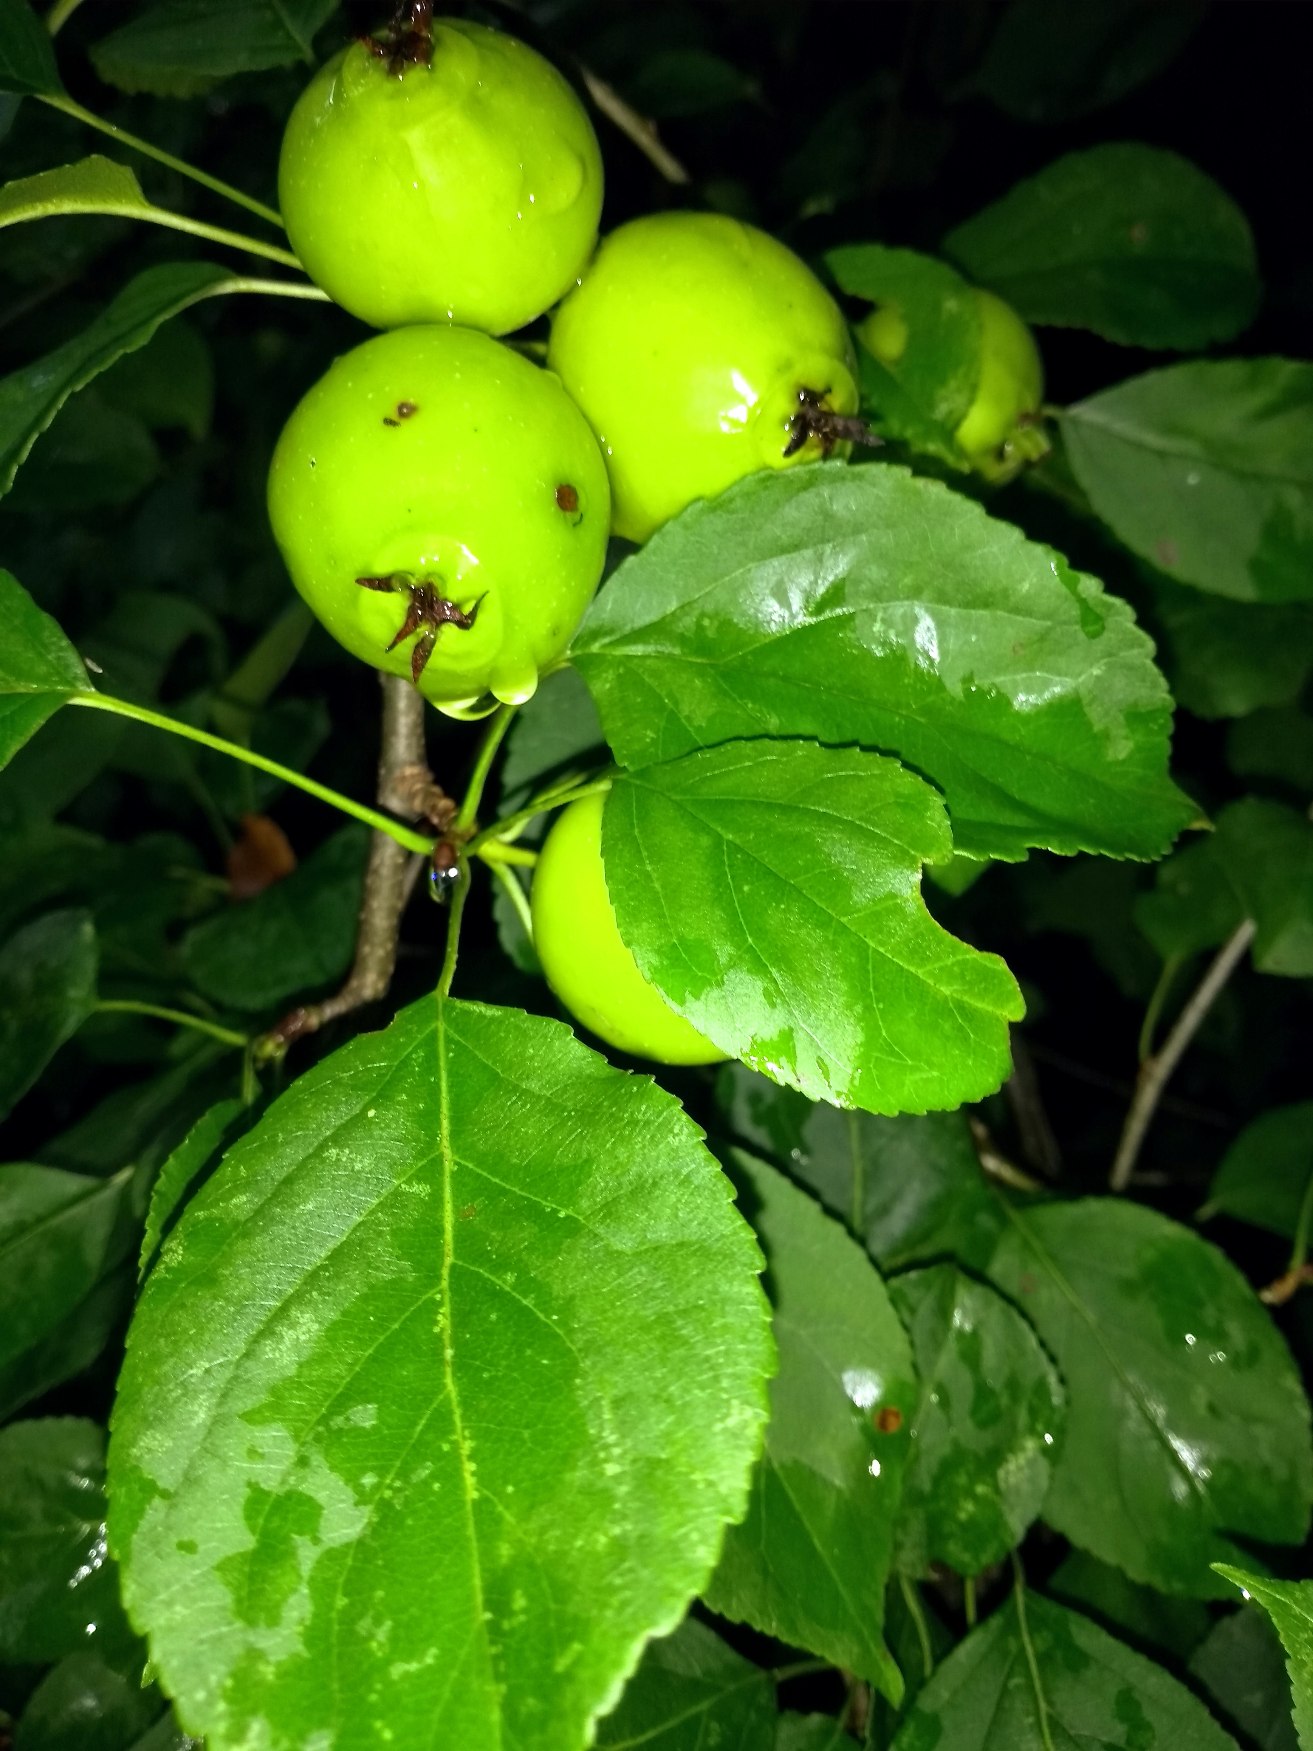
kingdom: Plantae
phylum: Tracheophyta
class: Magnoliopsida
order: Rosales
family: Rosaceae
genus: Malus
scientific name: Malus sylvestris
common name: Skov-æble
